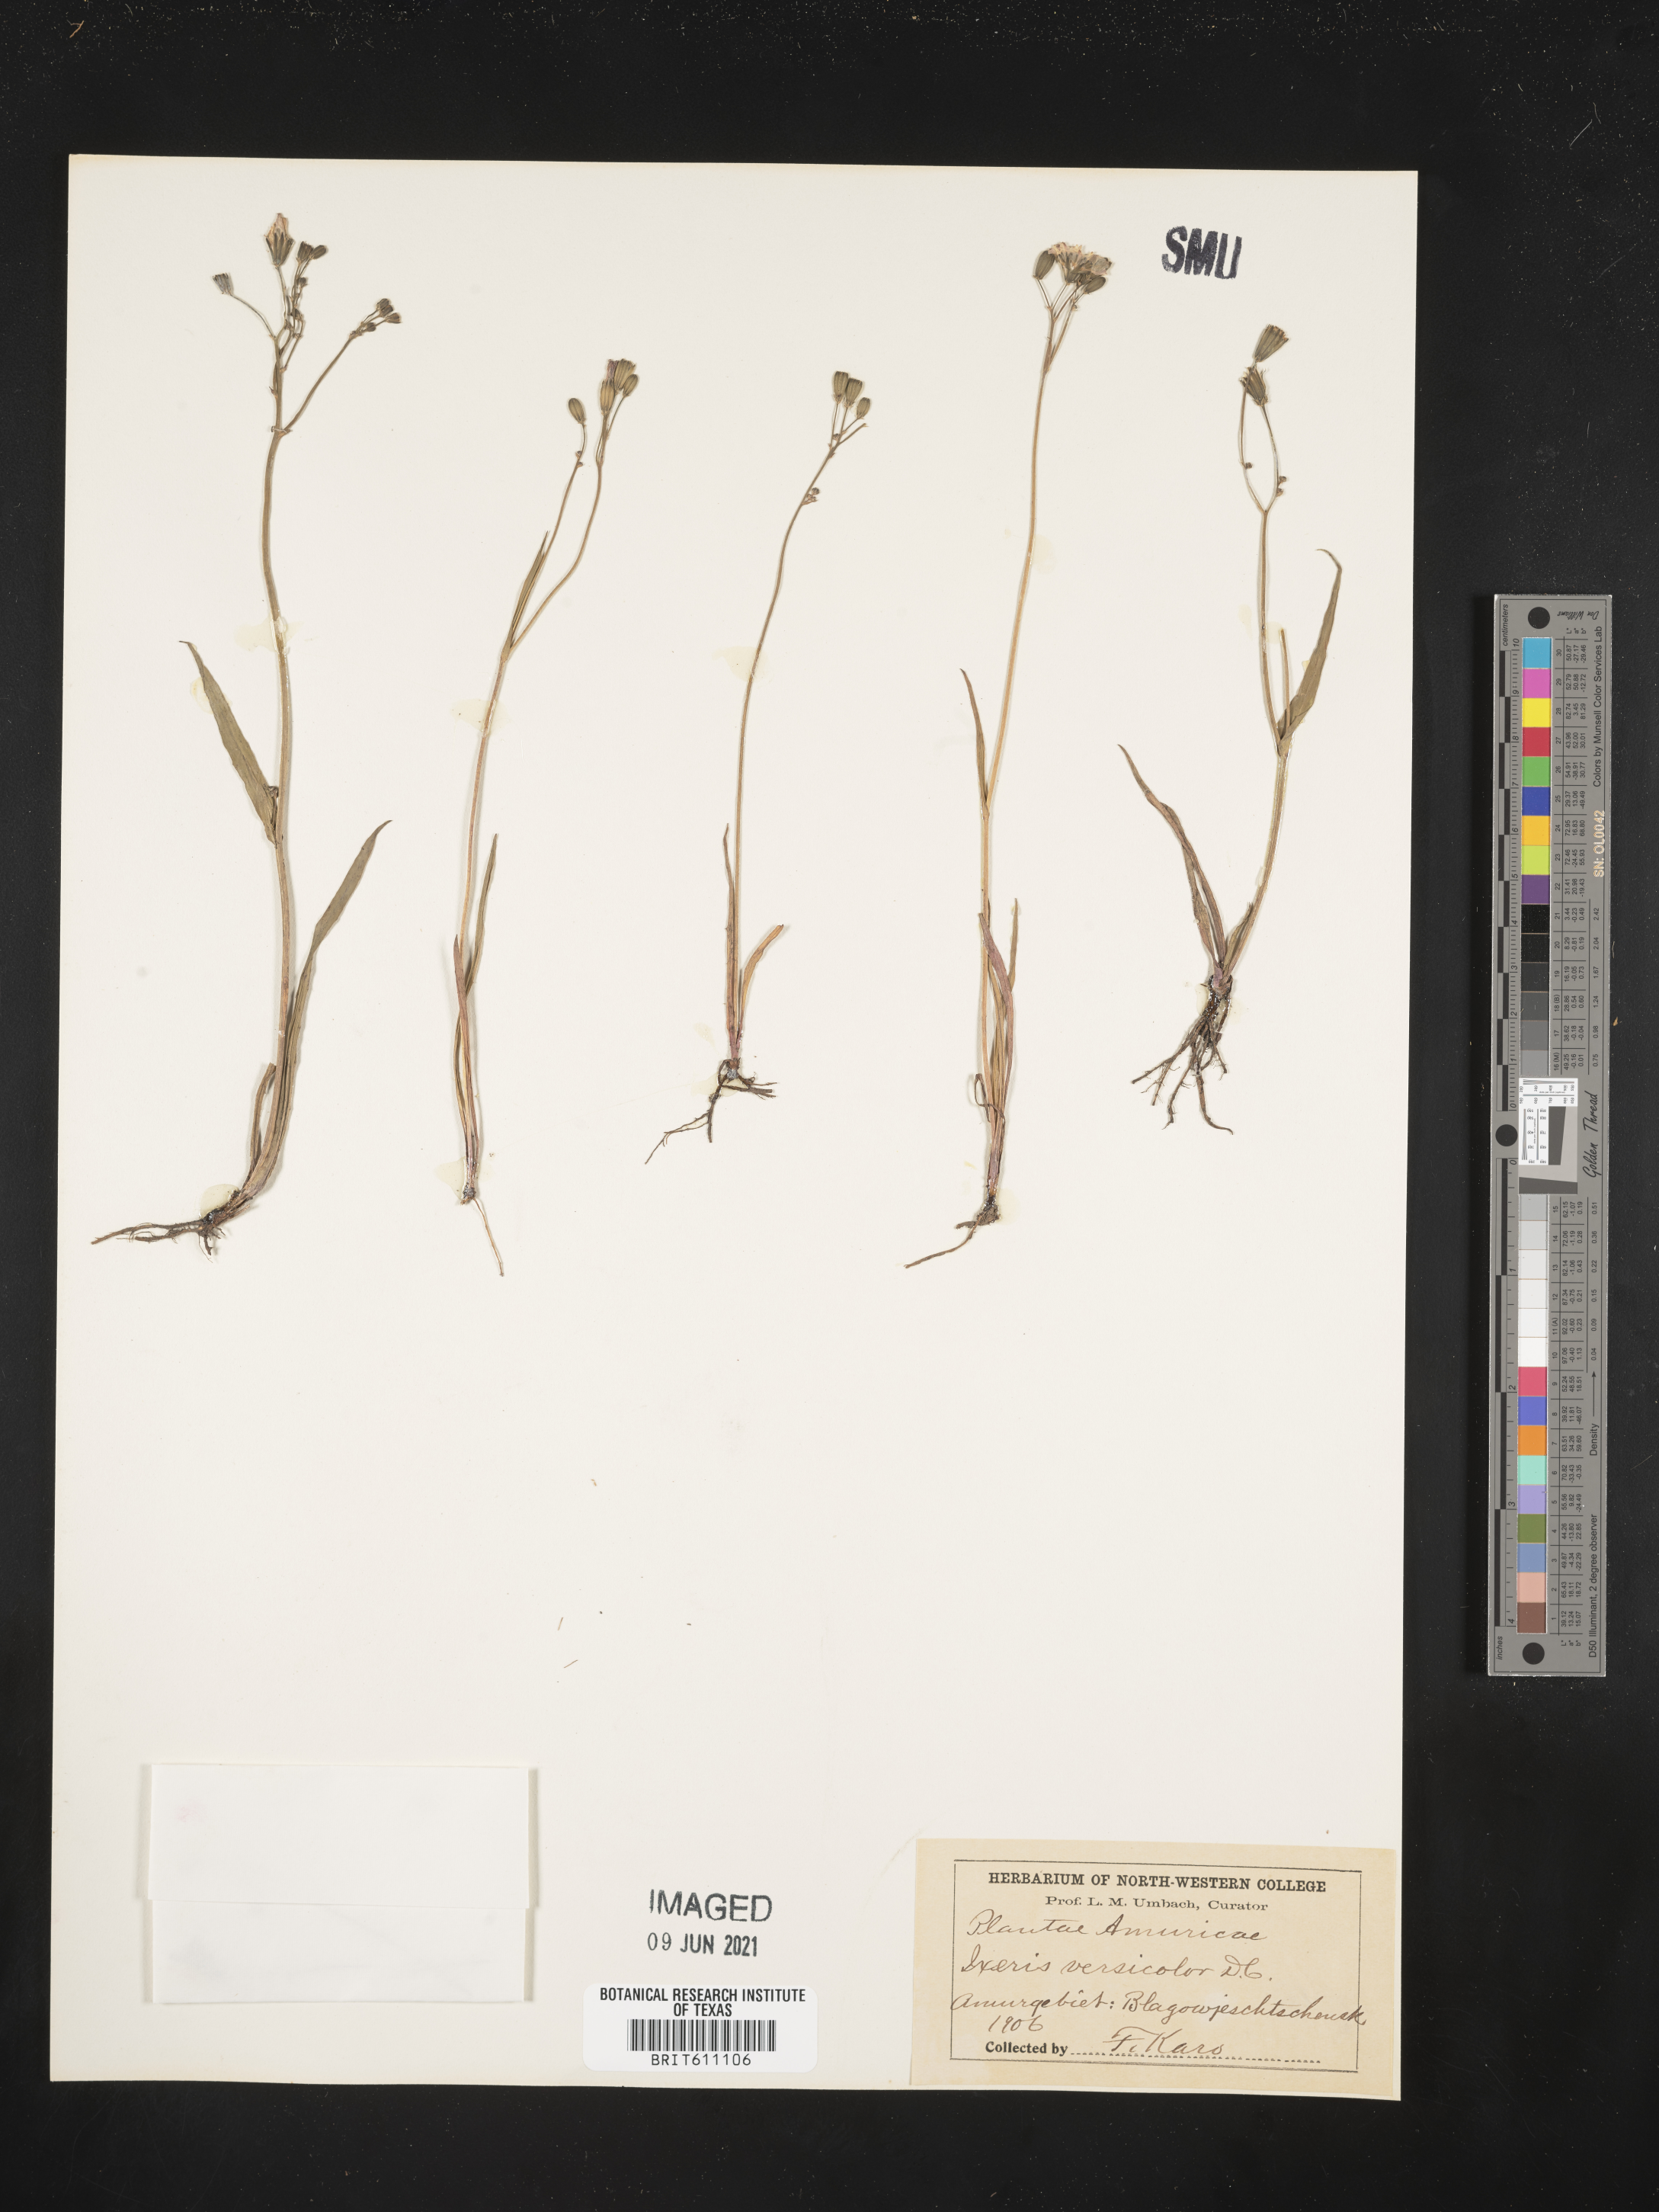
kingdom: Plantae
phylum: Tracheophyta
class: Magnoliopsida
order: Asterales
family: Asteraceae
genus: Ixeris
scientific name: Ixeris chinensis
